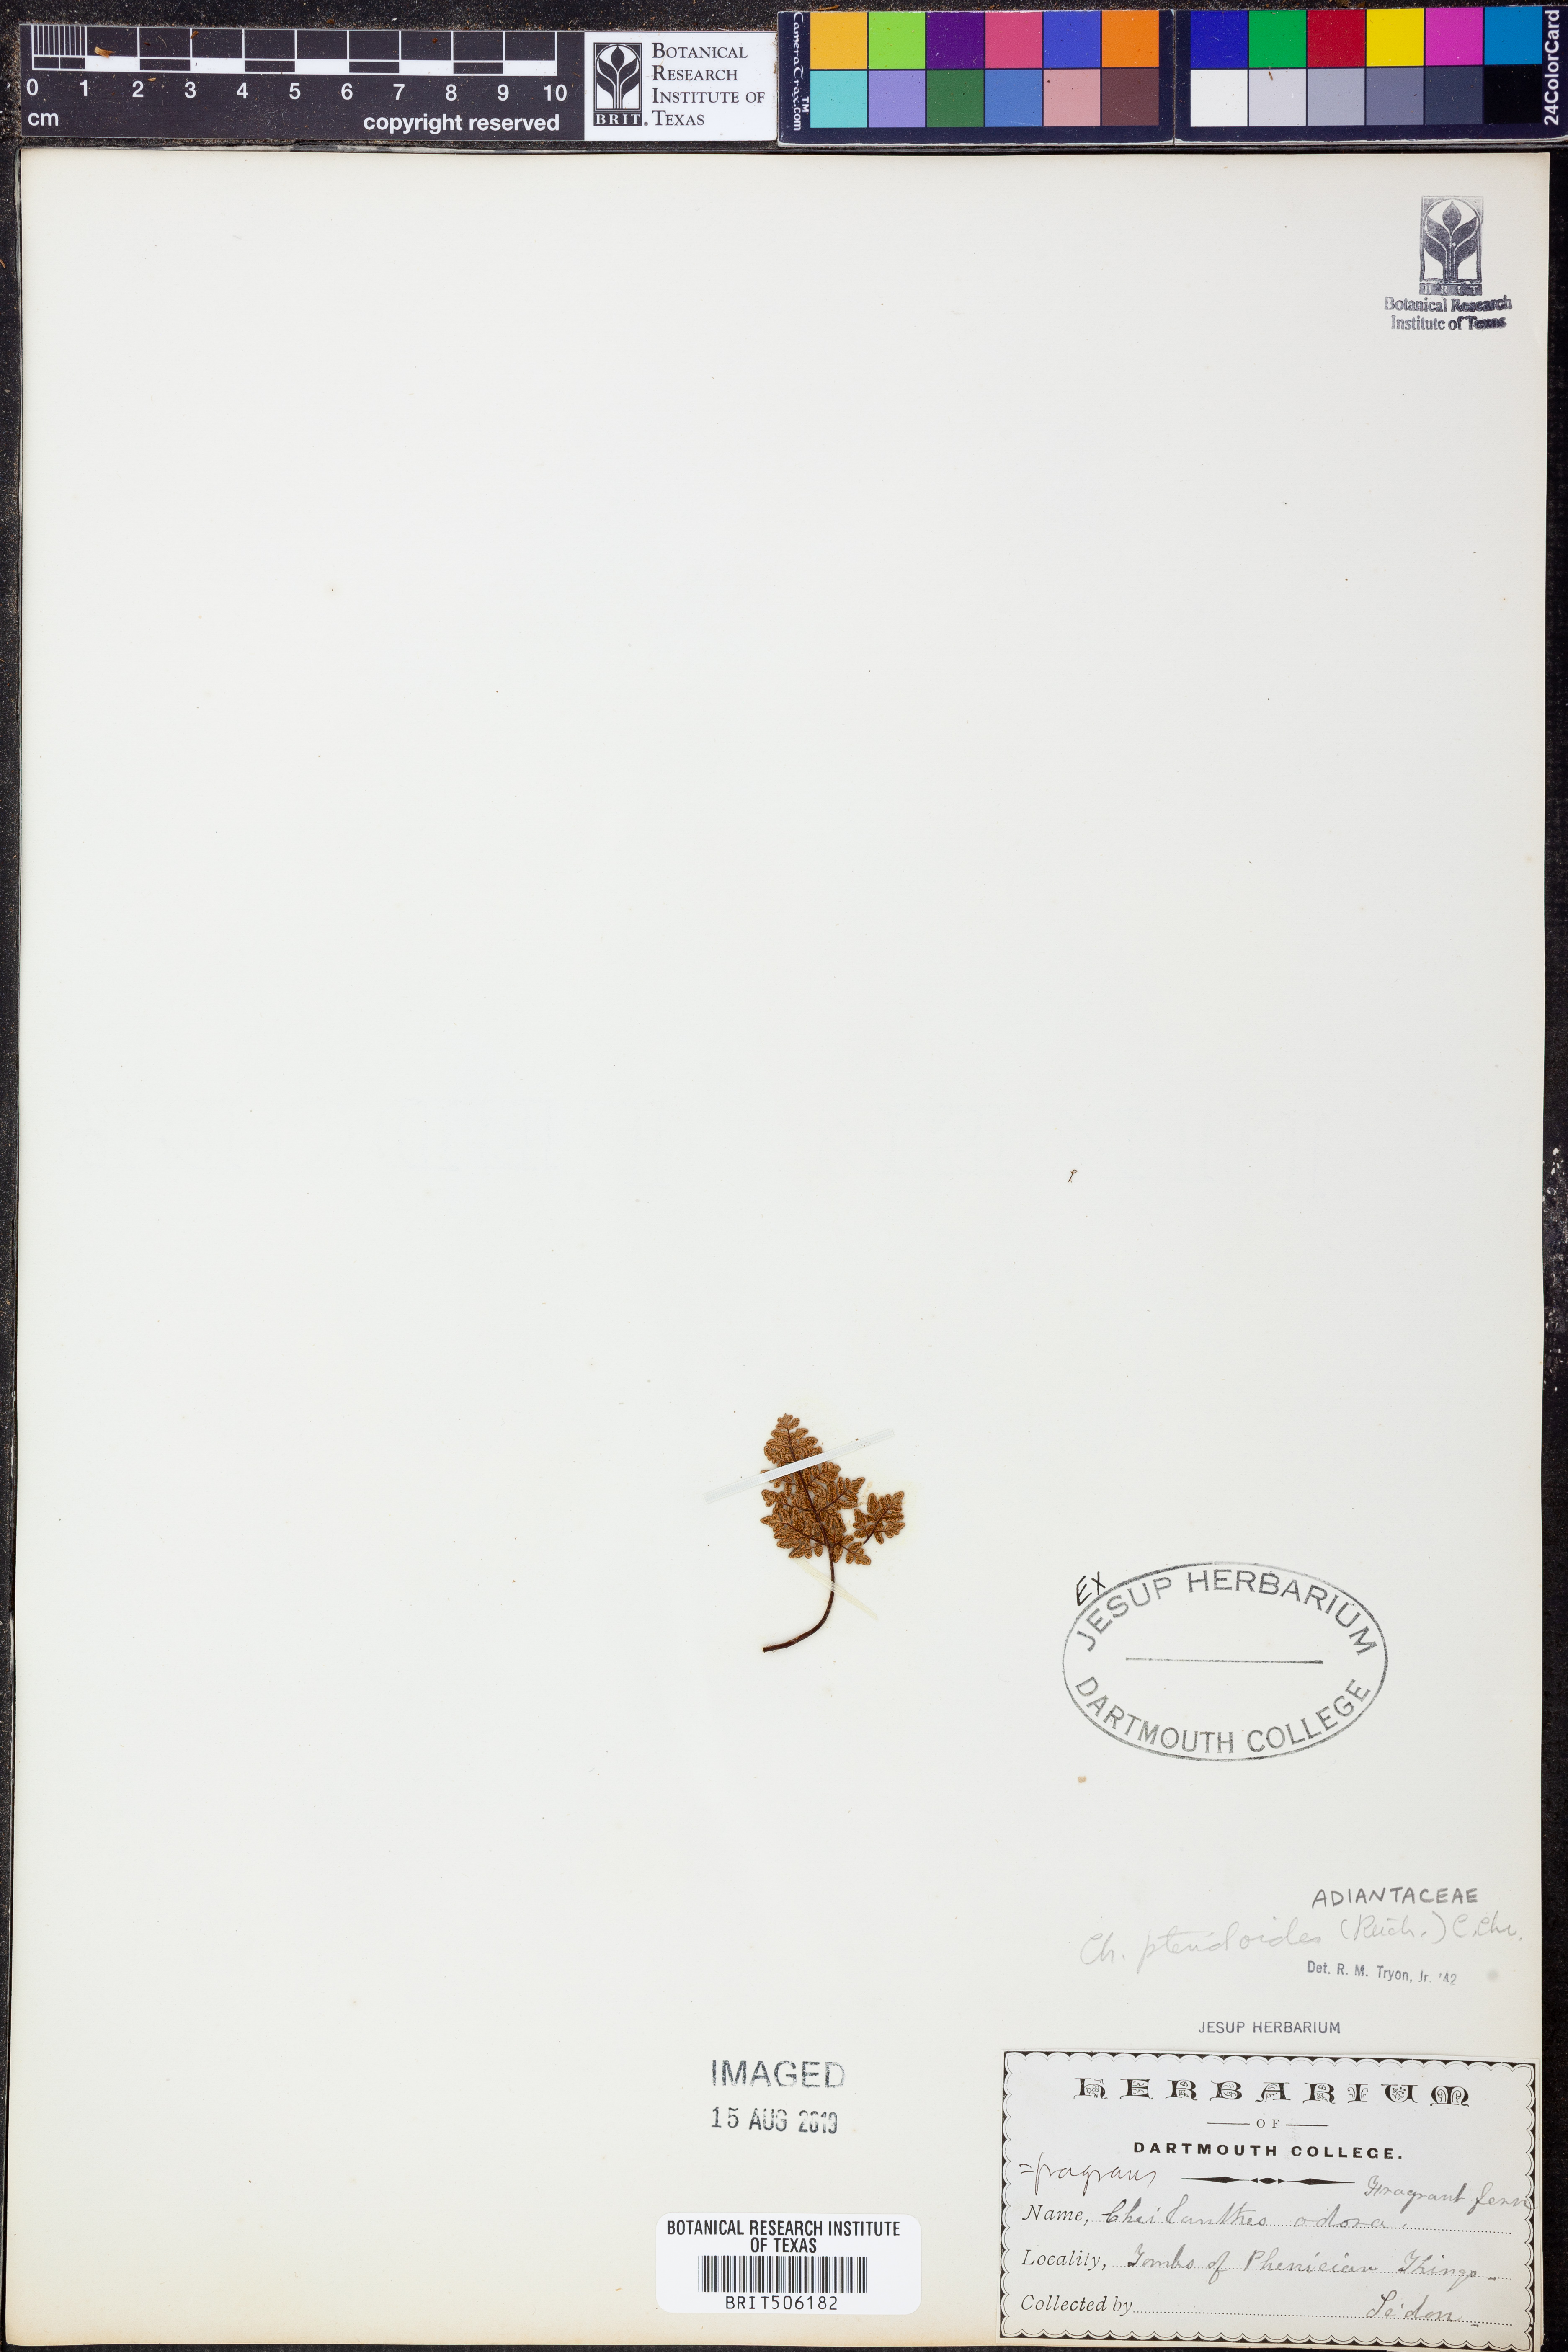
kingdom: Plantae
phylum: Tracheophyta
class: Polypodiopsida
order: Polypodiales
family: Pteridaceae
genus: Oeosporangium
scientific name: Oeosporangium pteridioides
